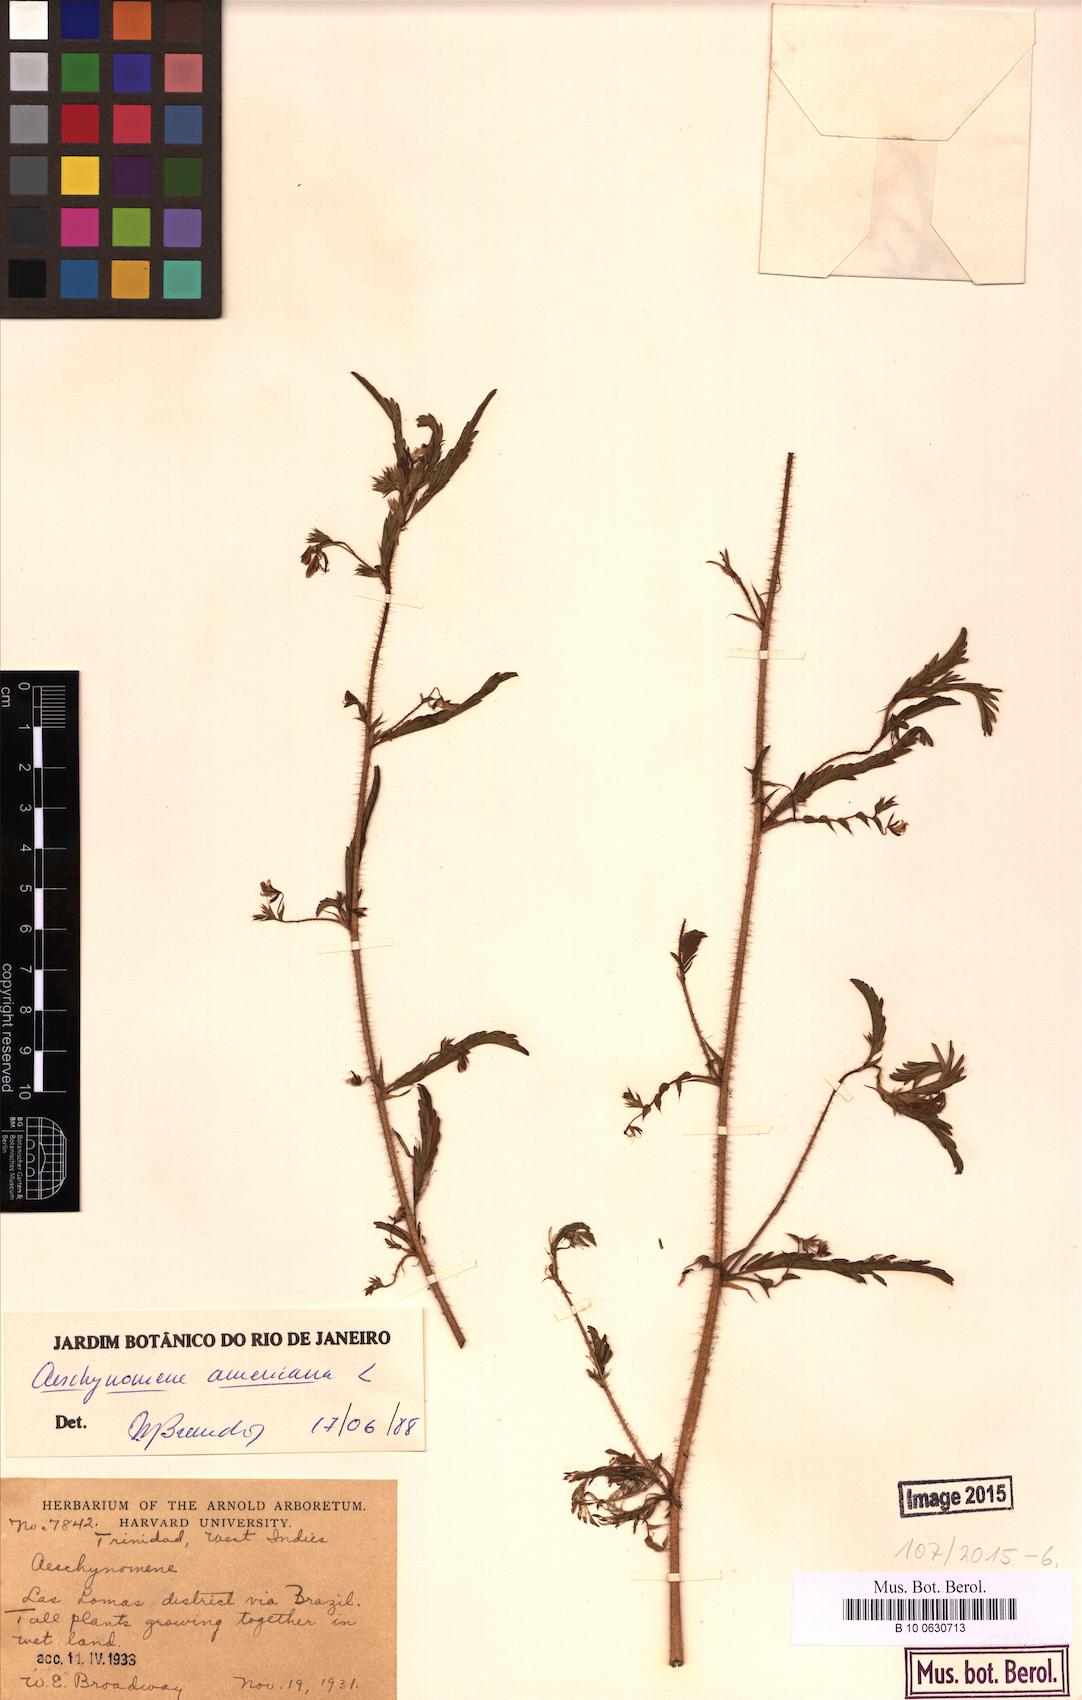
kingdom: Plantae
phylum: Tracheophyta
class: Magnoliopsida
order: Fabales
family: Fabaceae
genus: Aeschynomene
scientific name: Aeschynomene americana
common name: Joint-vetch
